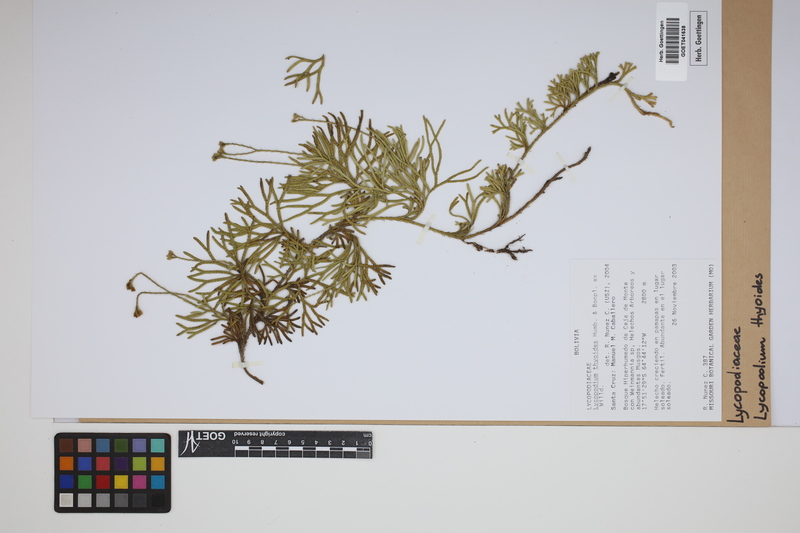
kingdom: Plantae
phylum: Tracheophyta
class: Lycopodiopsida
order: Lycopodiales
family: Lycopodiaceae
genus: Diphasiastrum
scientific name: Diphasiastrum thyoides
